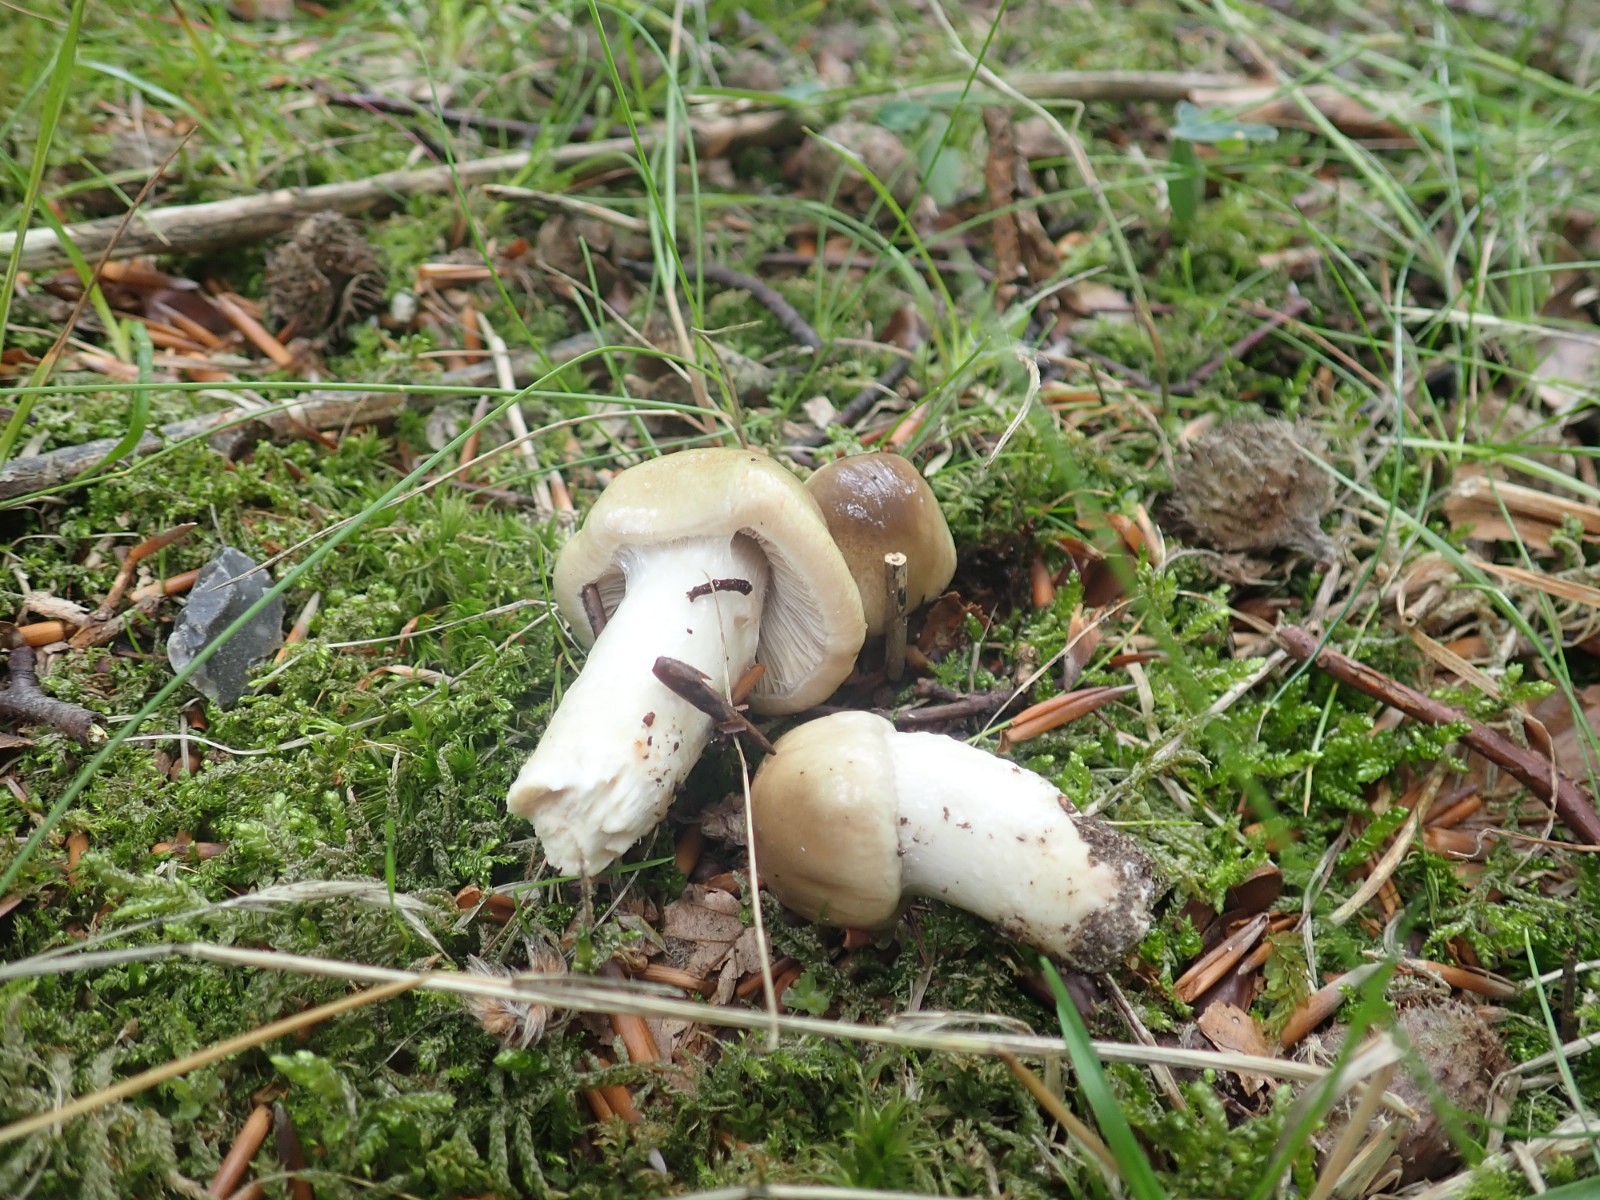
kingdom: Fungi
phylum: Basidiomycota
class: Agaricomycetes
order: Agaricales
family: Cortinariaceae
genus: Cortinarius
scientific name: Cortinarius elatior
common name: høj slørhat
